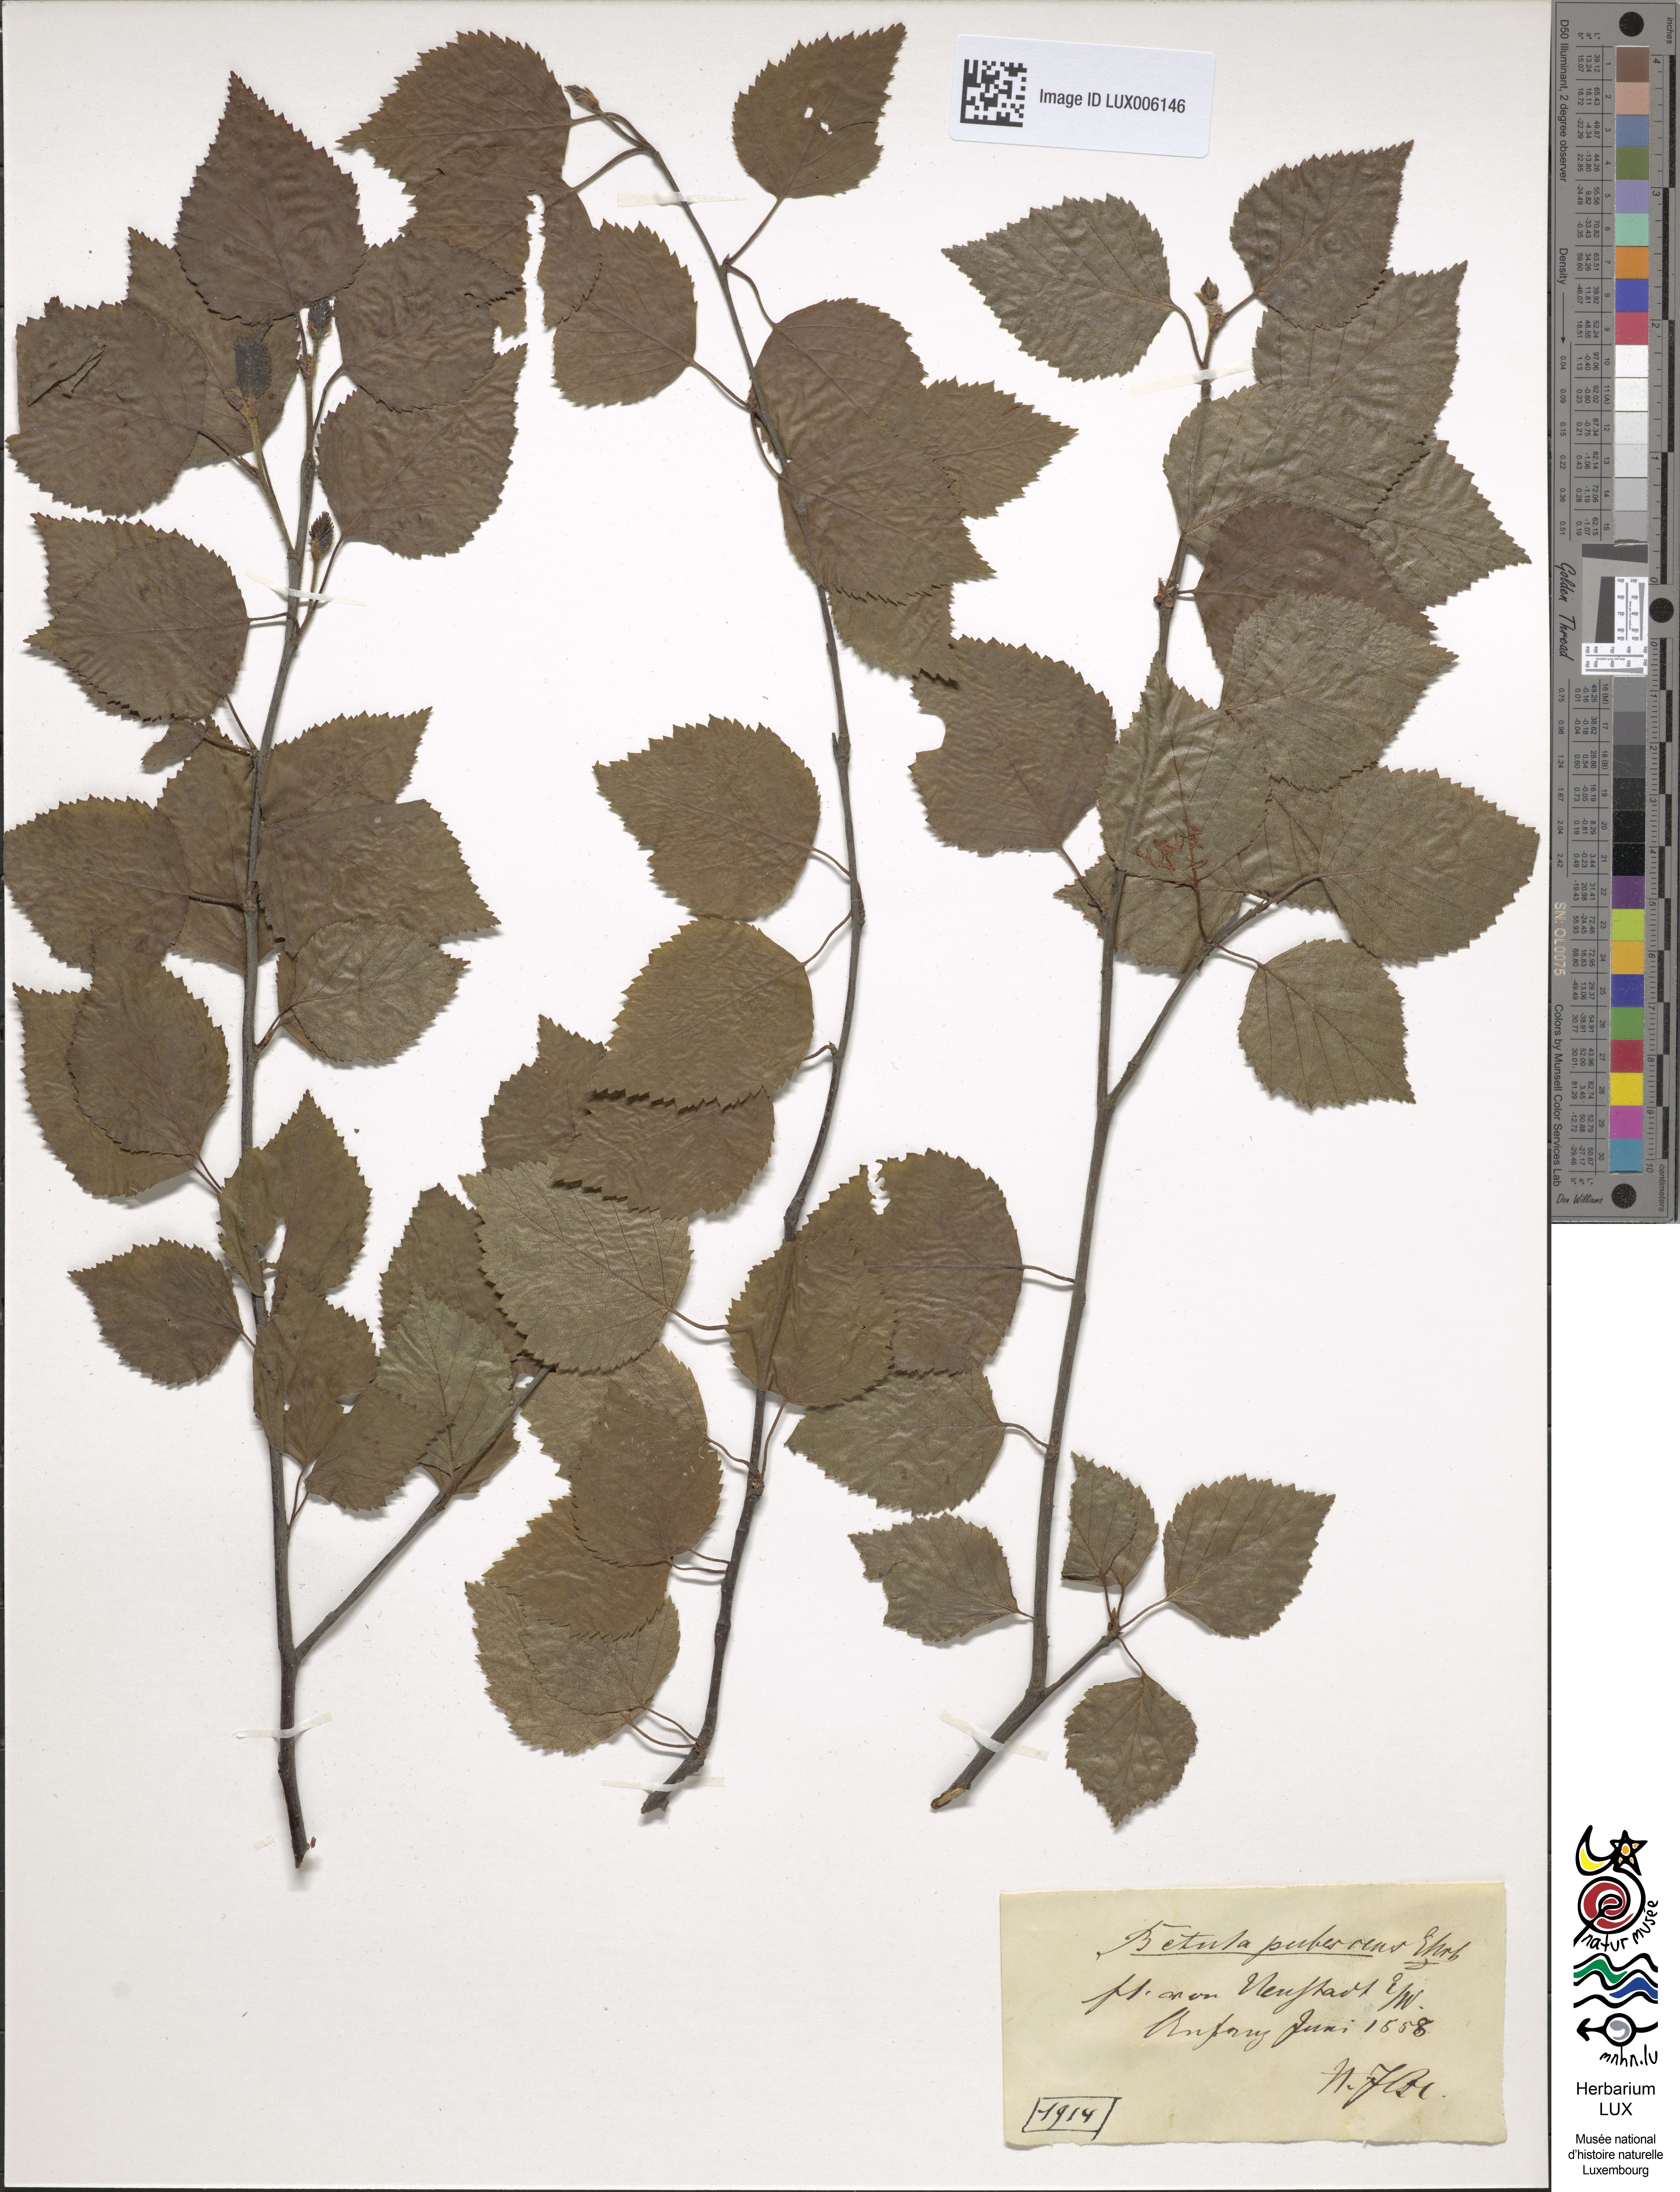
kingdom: Plantae
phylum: Tracheophyta
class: Magnoliopsida
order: Fagales
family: Betulaceae
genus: Betula
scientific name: Betula pubescens
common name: Downy birch
